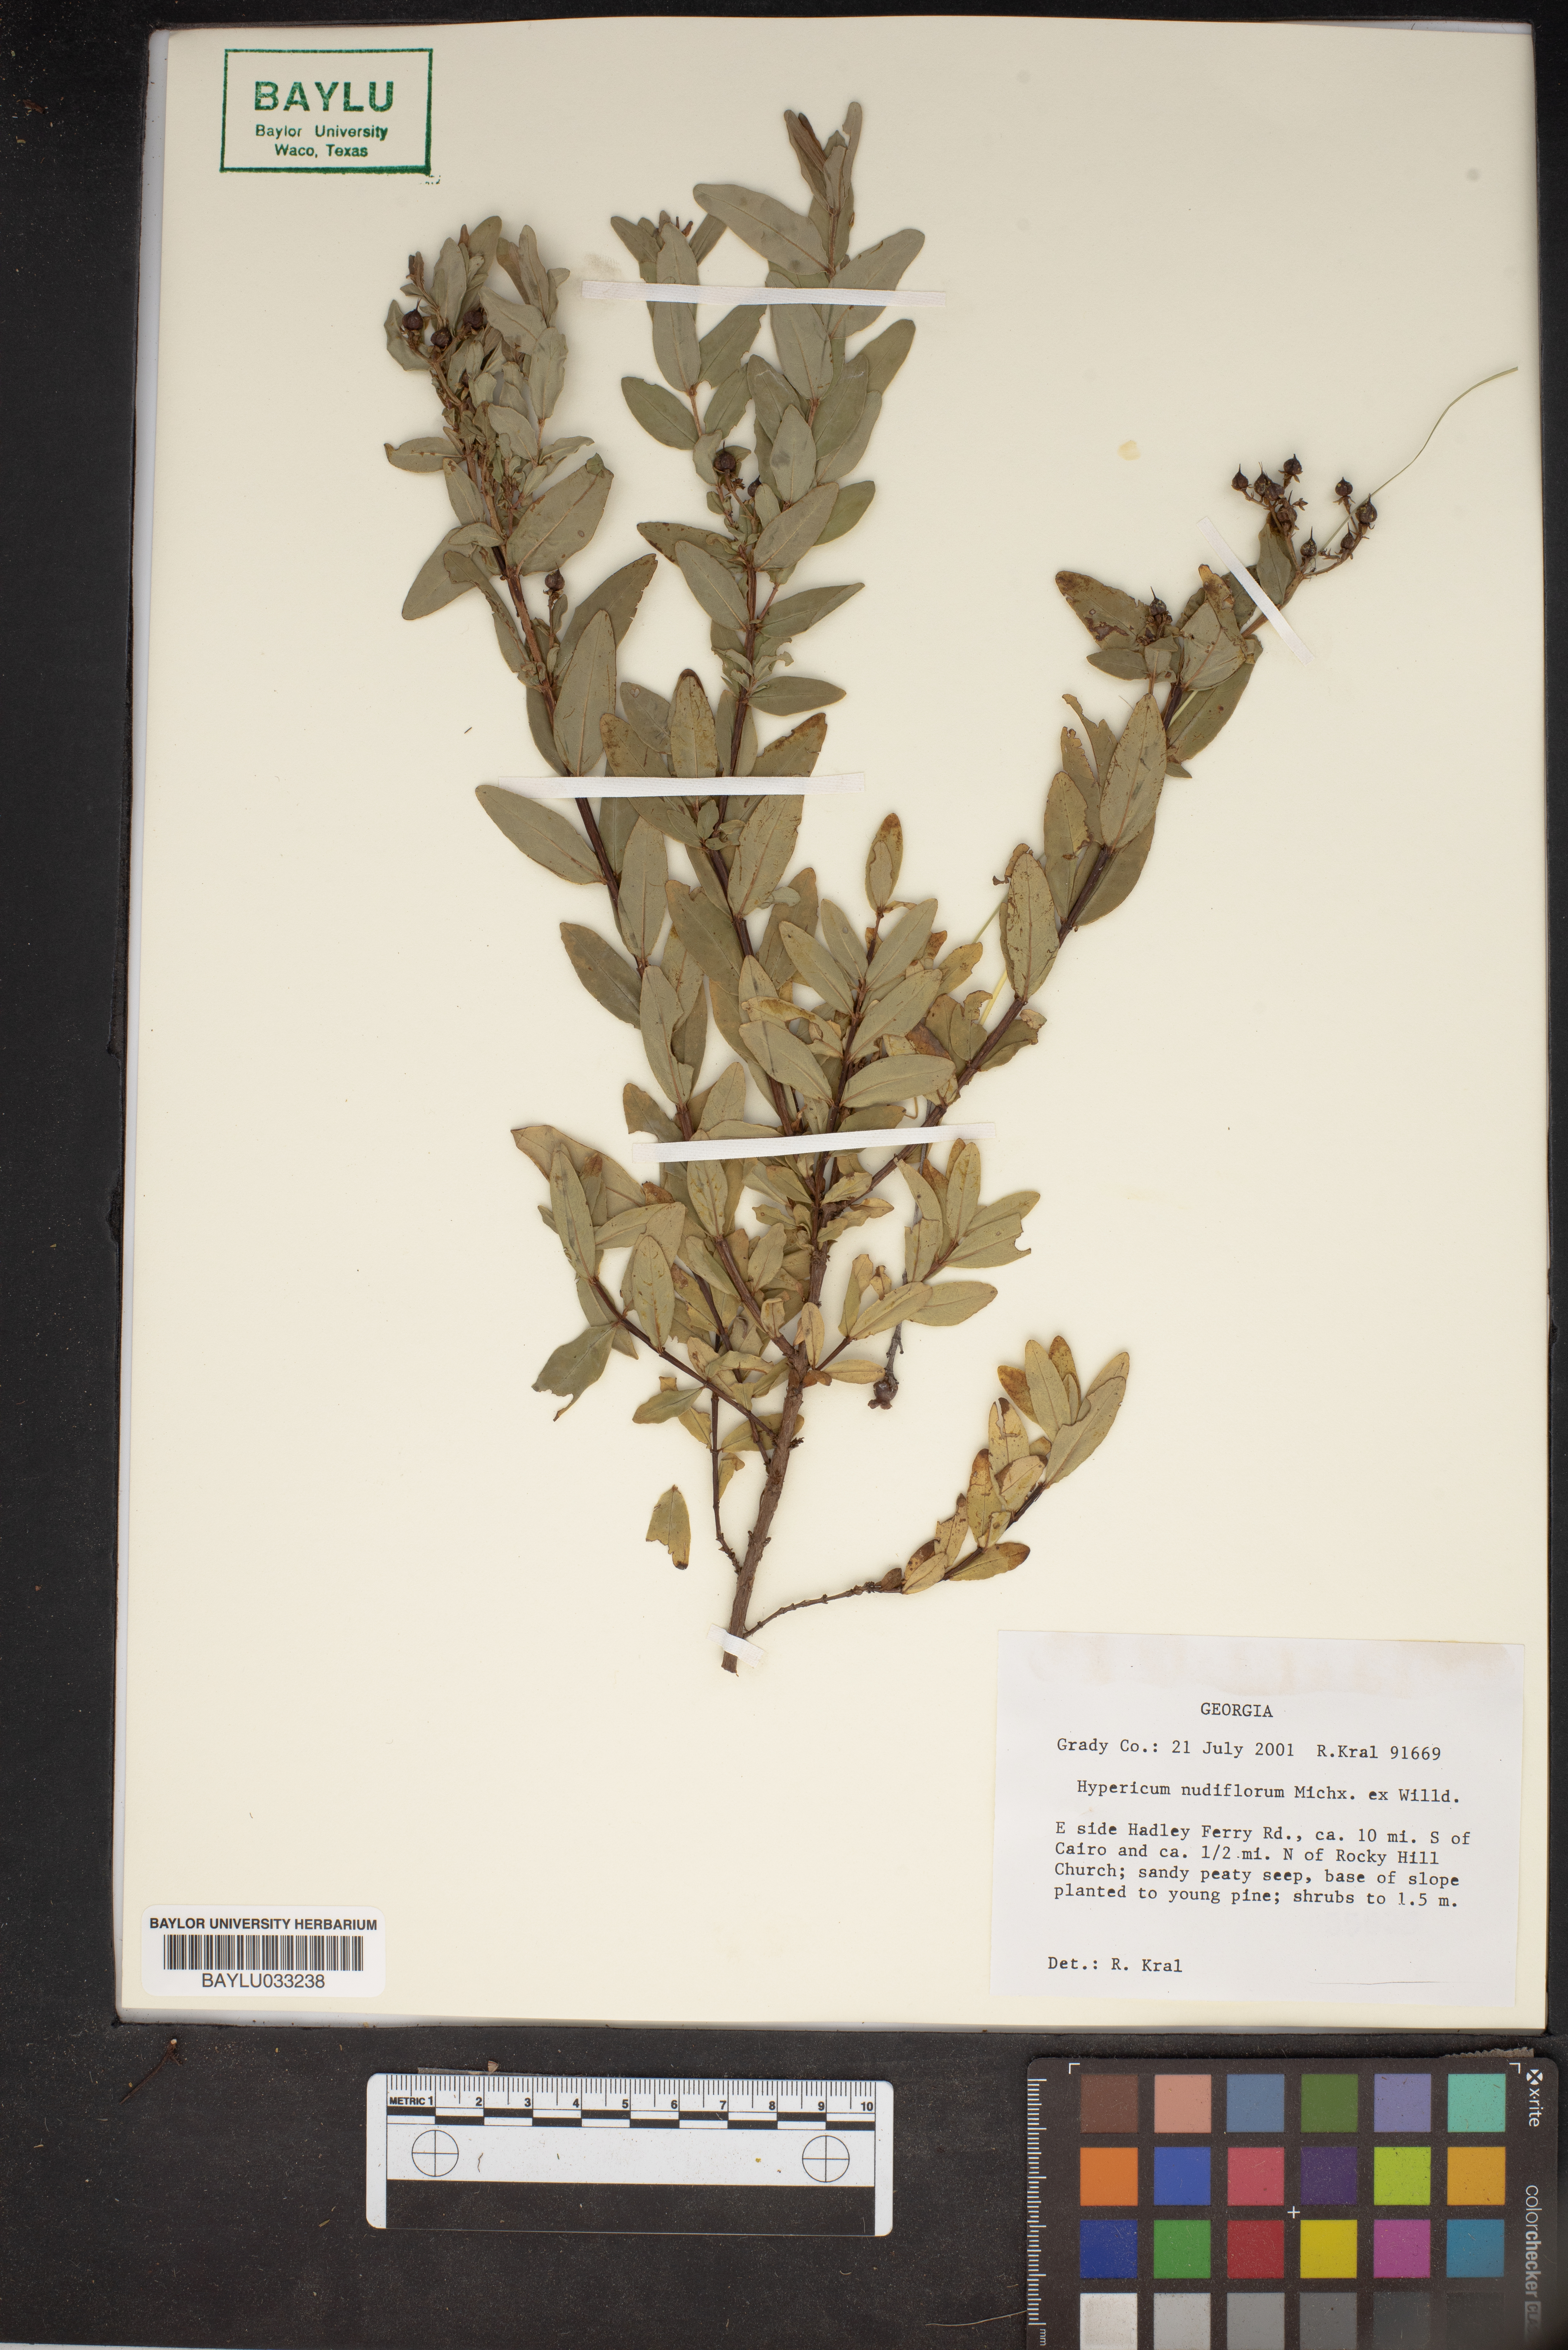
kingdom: Plantae
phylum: Tracheophyta
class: Magnoliopsida
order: Malpighiales
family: Hypericaceae
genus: Hypericum
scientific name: Hypericum nudiflorum
